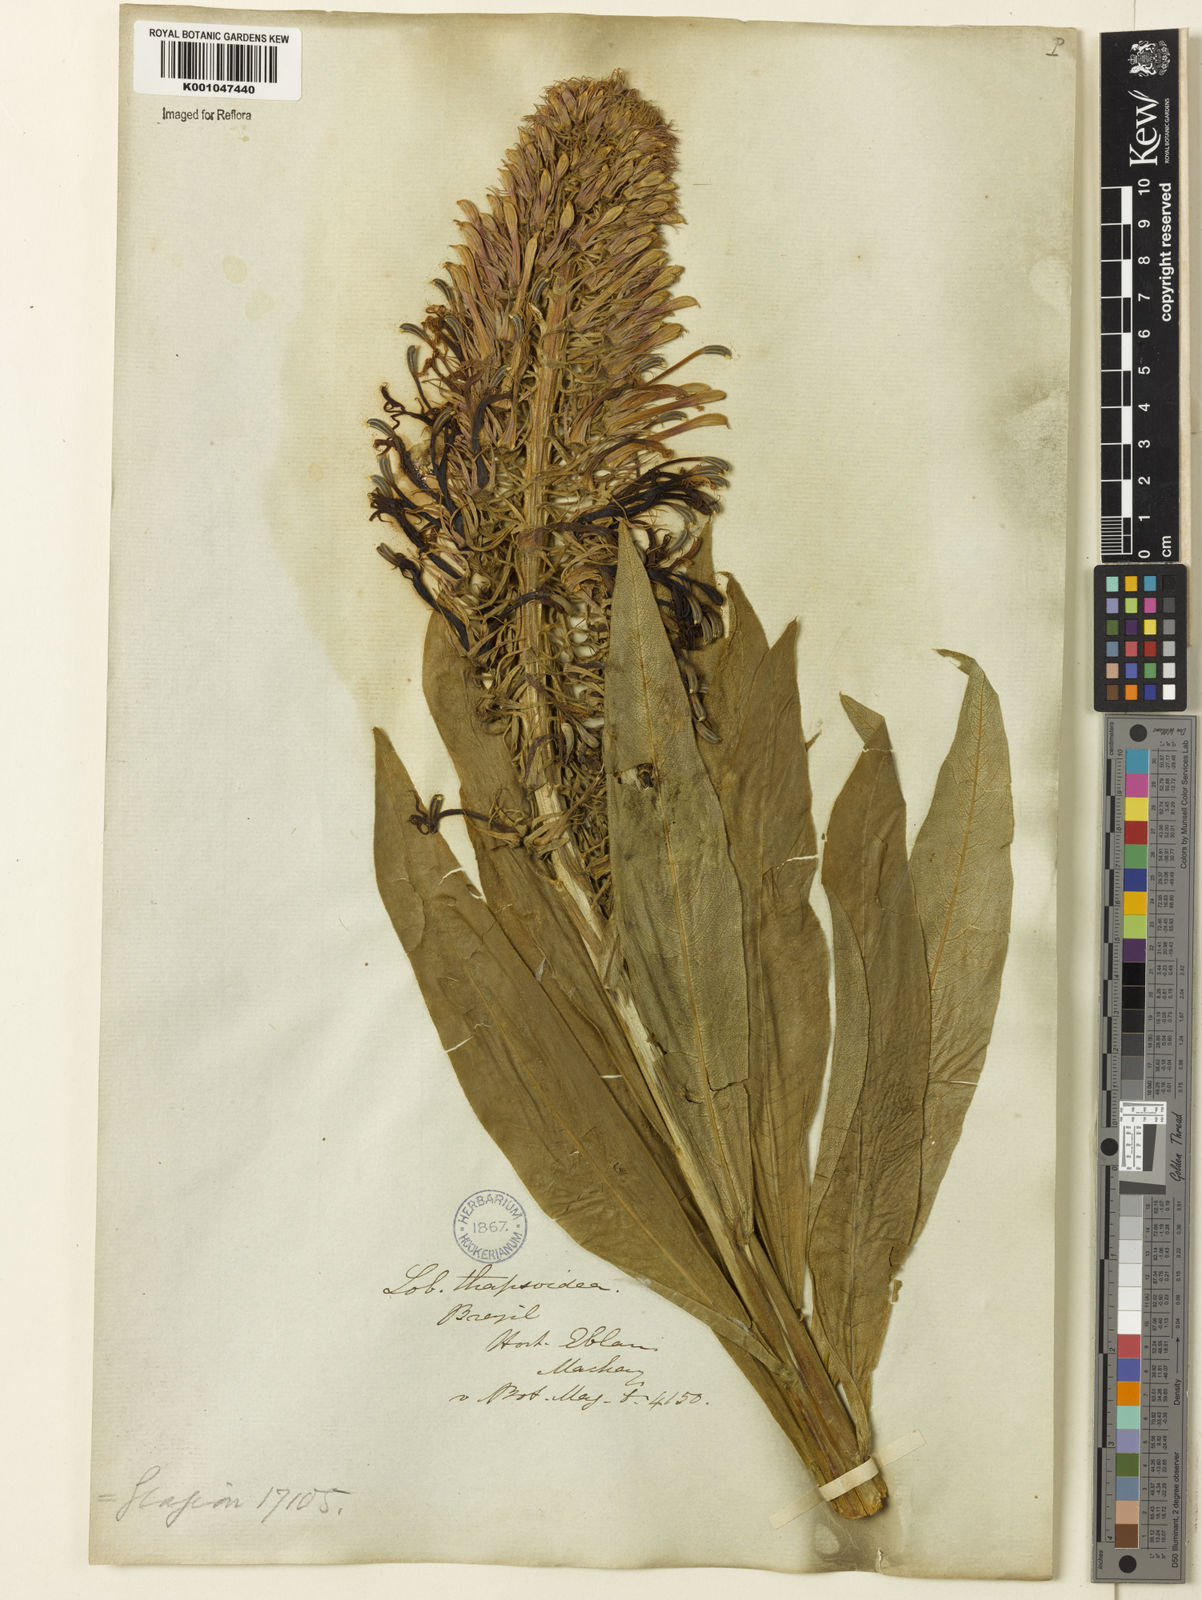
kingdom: Plantae
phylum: Tracheophyta
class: Magnoliopsida
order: Asterales
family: Campanulaceae
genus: Lobelia
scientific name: Lobelia
